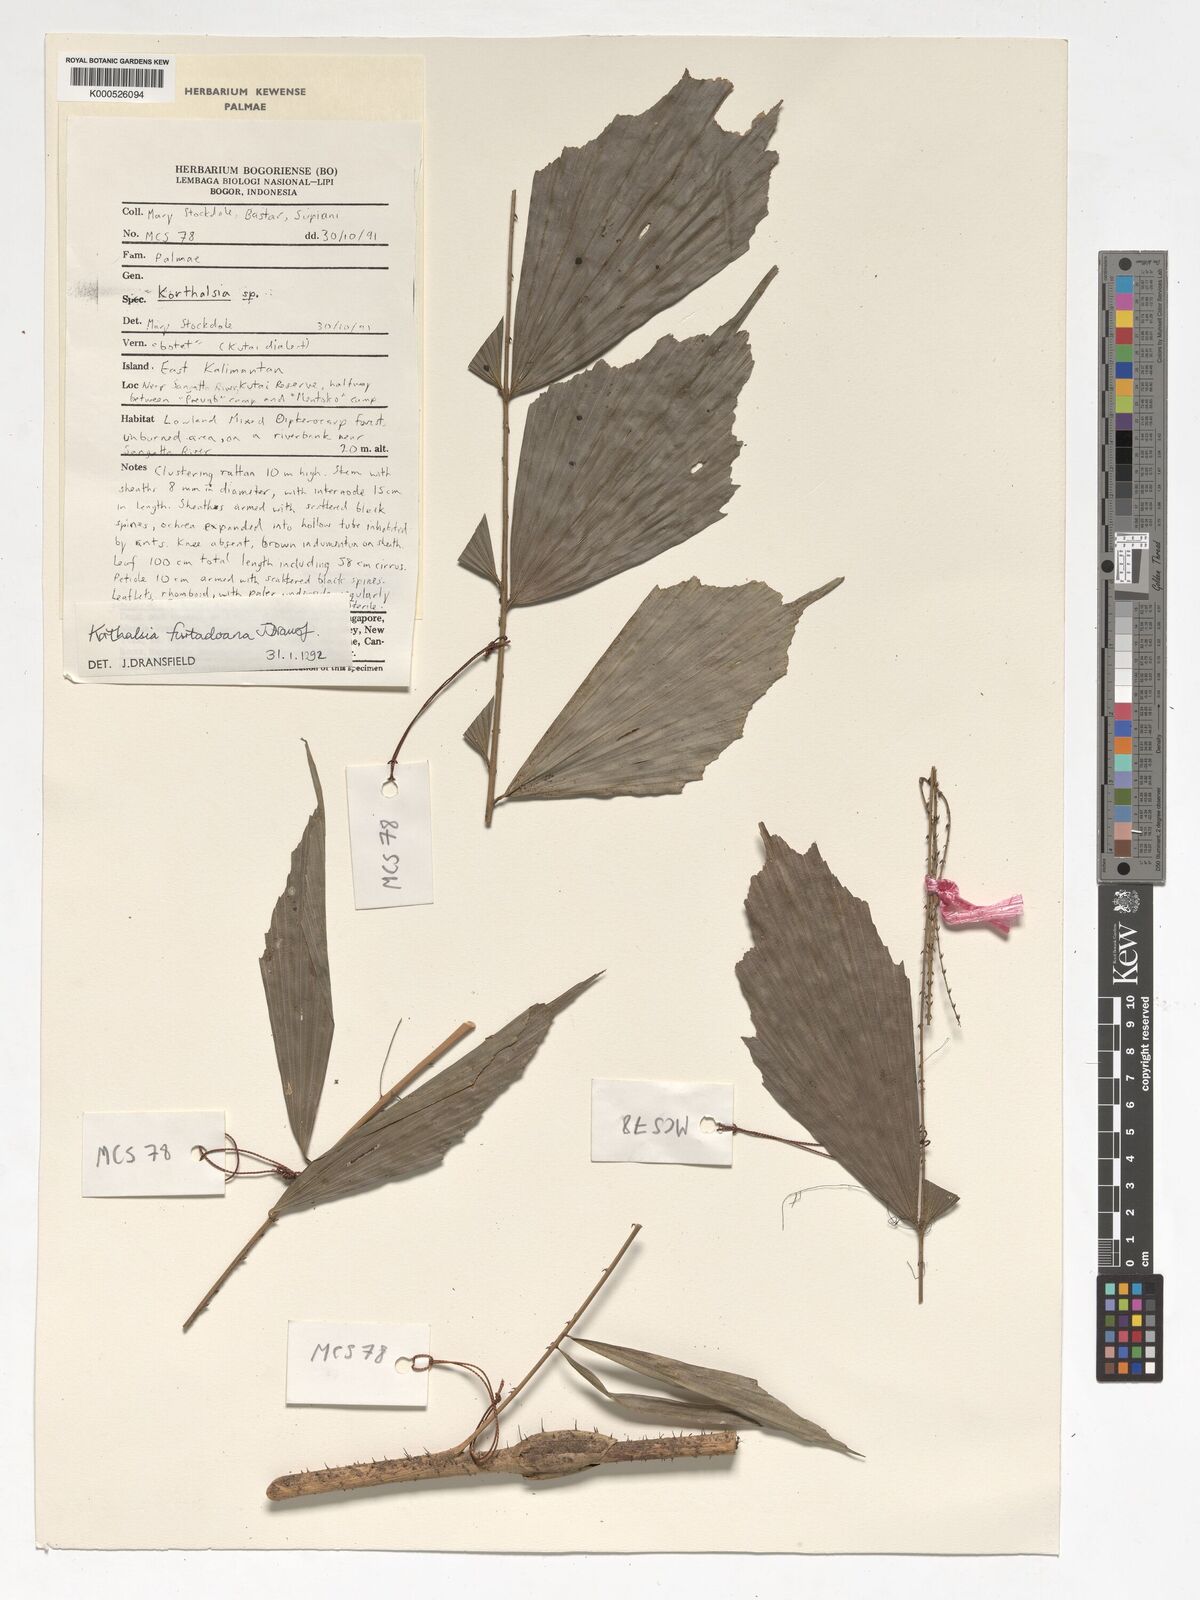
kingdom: Plantae
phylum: Tracheophyta
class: Liliopsida
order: Arecales
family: Arecaceae
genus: Korthalsia
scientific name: Korthalsia furtadoana
